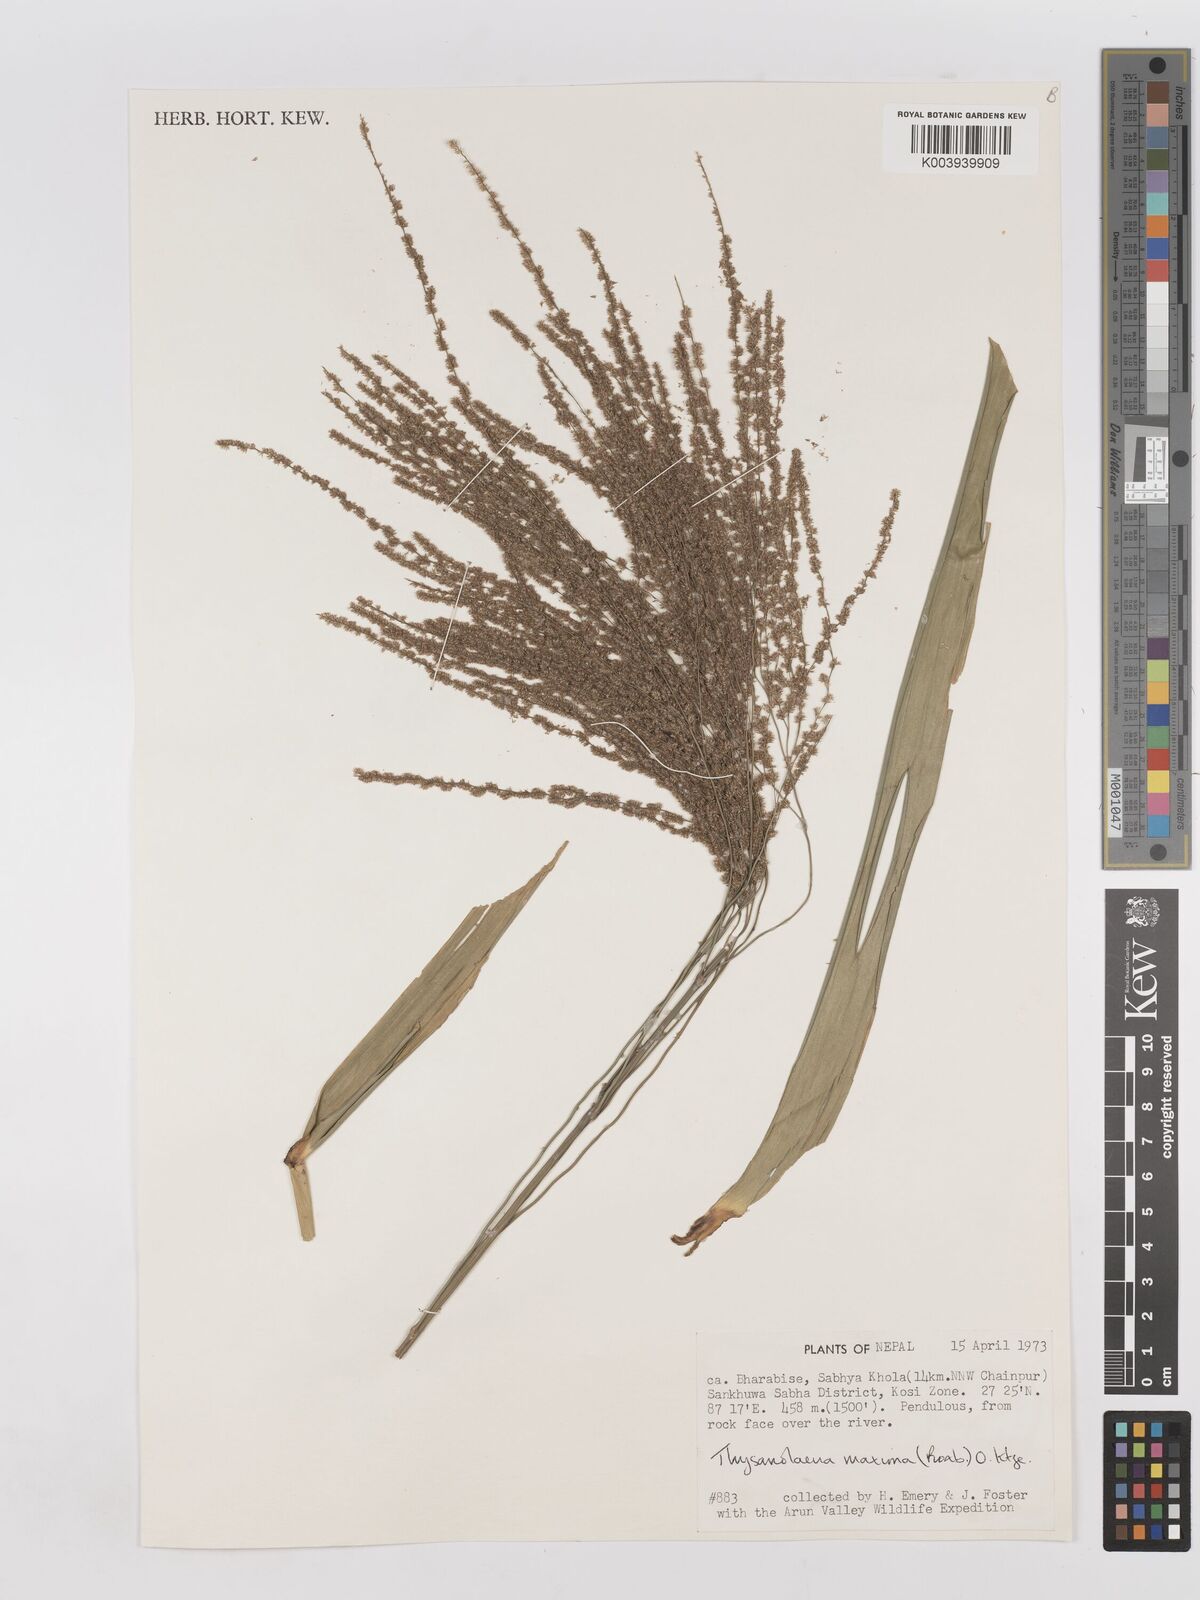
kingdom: Plantae
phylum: Tracheophyta
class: Liliopsida
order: Poales
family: Poaceae
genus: Thysanolaena
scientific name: Thysanolaena latifolia
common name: Tiger grass
